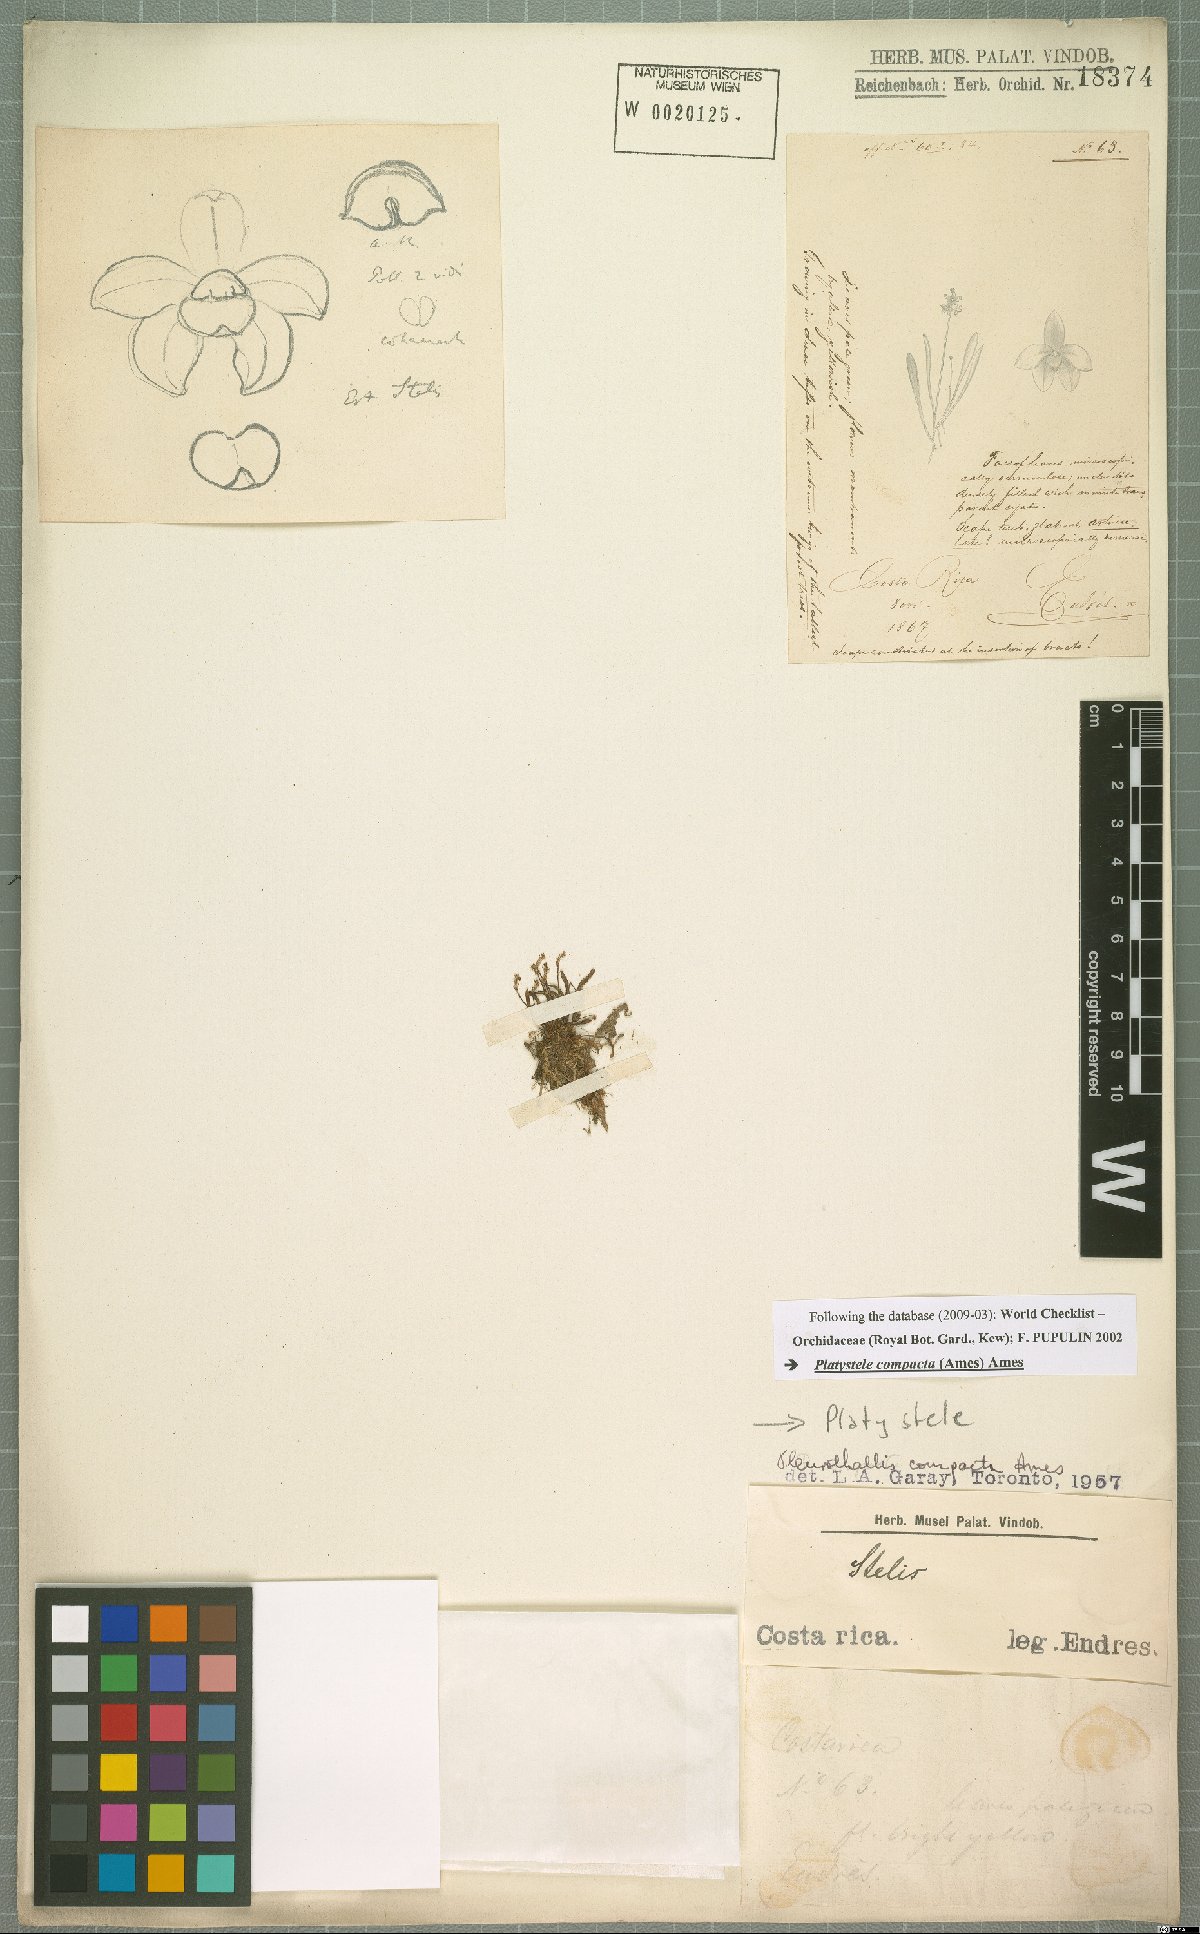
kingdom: Plantae
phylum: Tracheophyta
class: Liliopsida
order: Asparagales
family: Orchidaceae
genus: Platystele
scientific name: Platystele compacta
